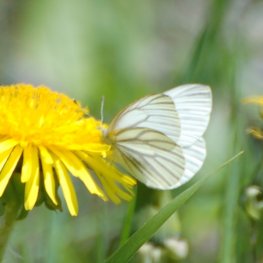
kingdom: Animalia
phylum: Arthropoda
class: Insecta
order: Lepidoptera
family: Pieridae
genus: Pieris
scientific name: Pieris oleracea
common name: Mustard White
